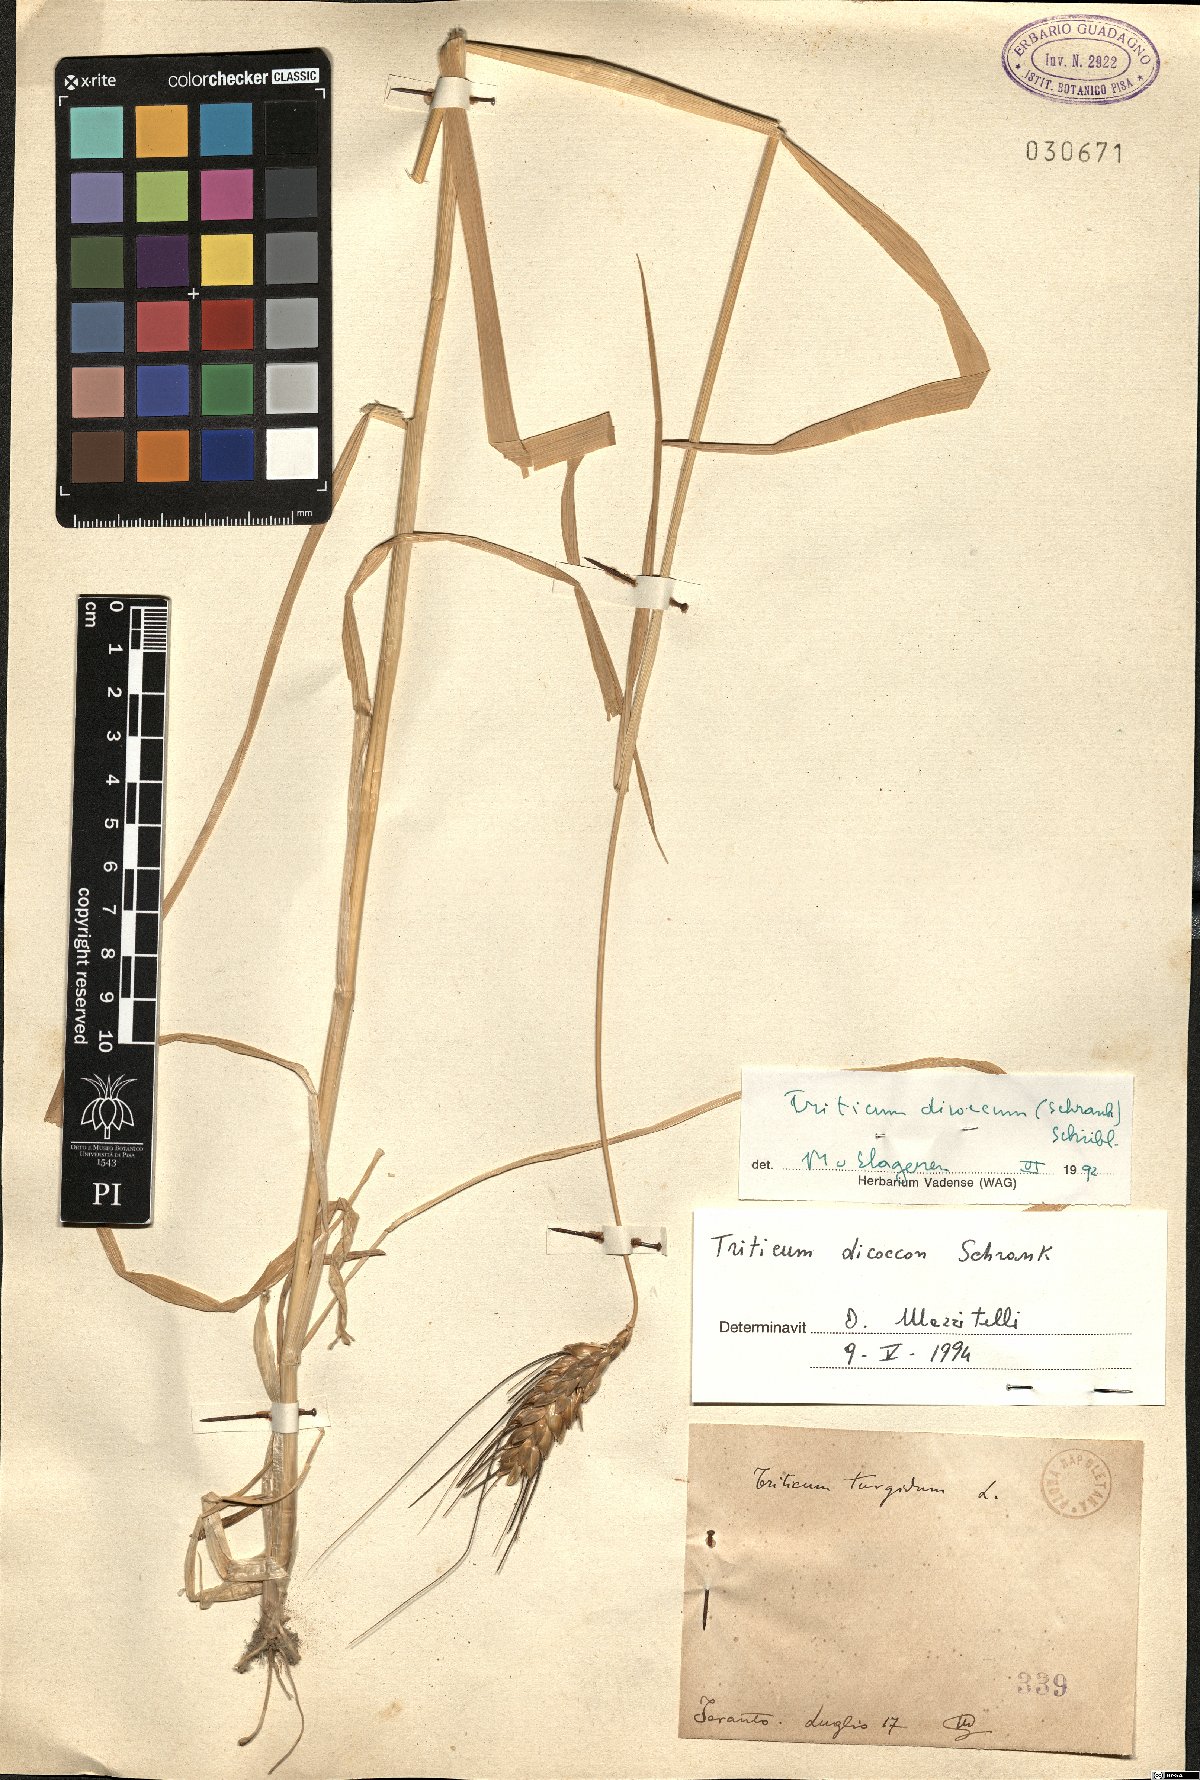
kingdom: Plantae
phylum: Tracheophyta
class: Liliopsida
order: Poales
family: Poaceae
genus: Triticum
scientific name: Triticum turgidum
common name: Rivet wheat
